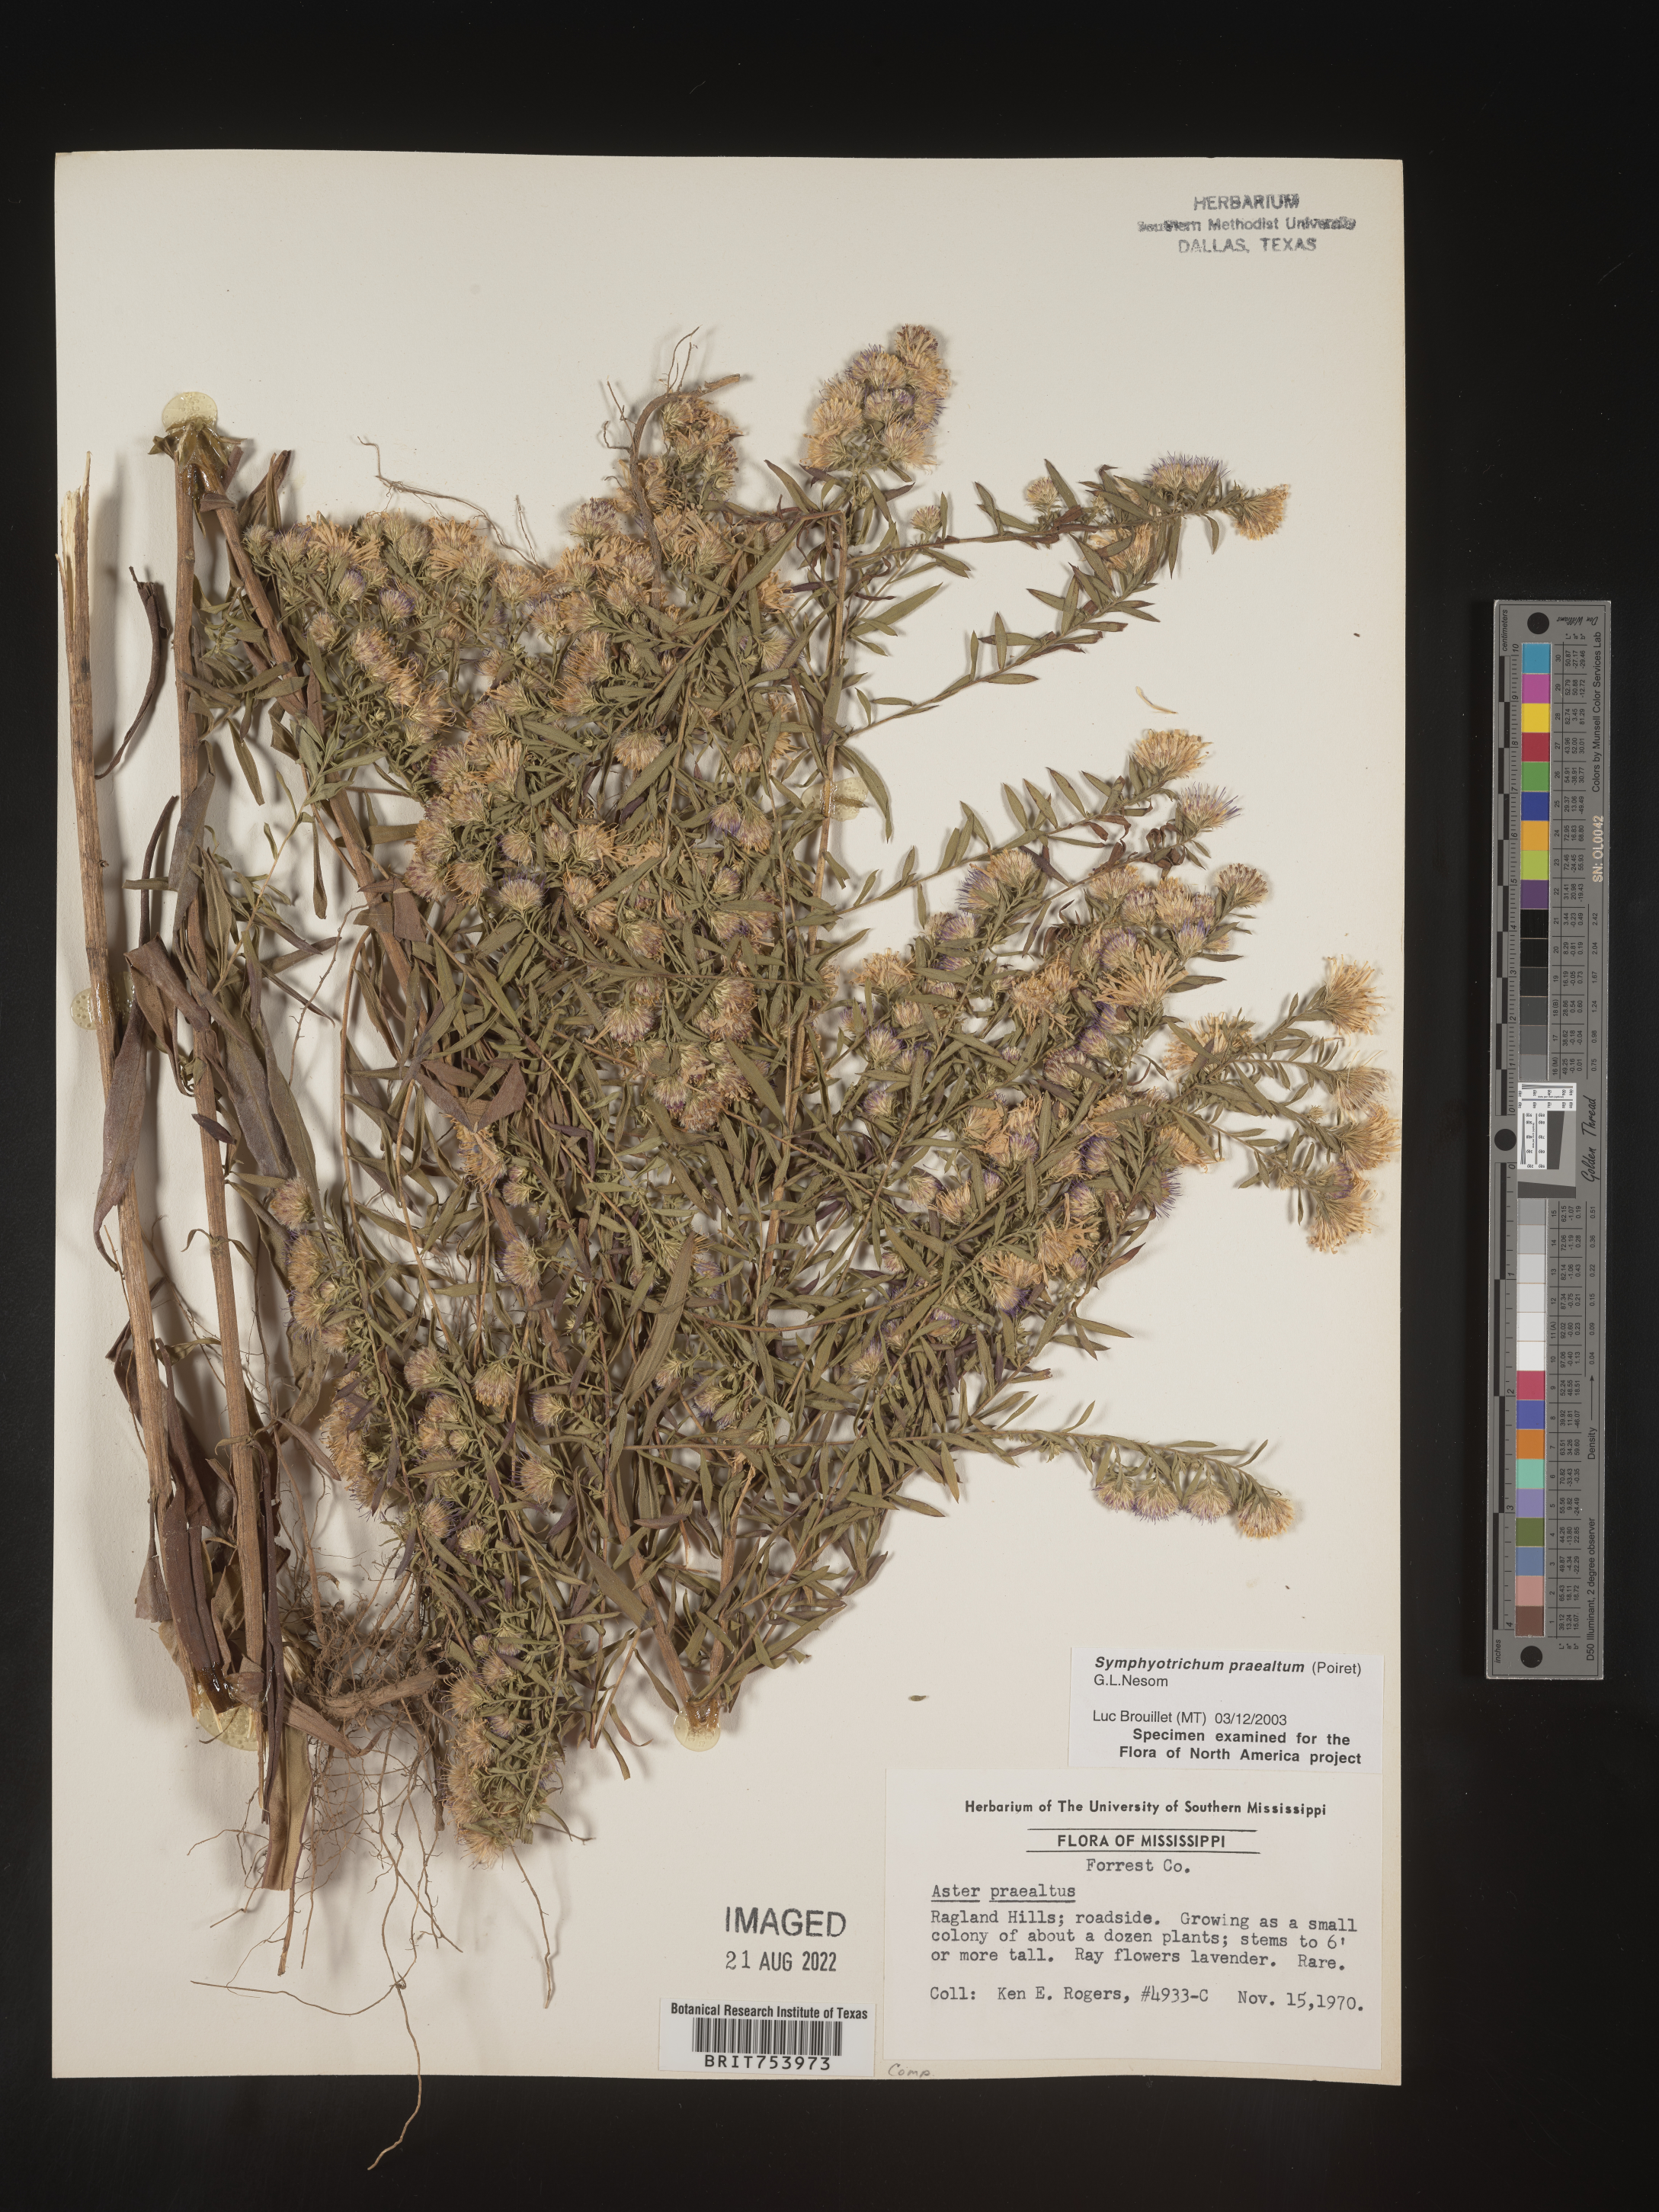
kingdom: Plantae
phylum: Tracheophyta
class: Magnoliopsida
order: Asterales
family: Asteraceae
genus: Symphyotrichum
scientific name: Symphyotrichum praealtum
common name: Willow aster
